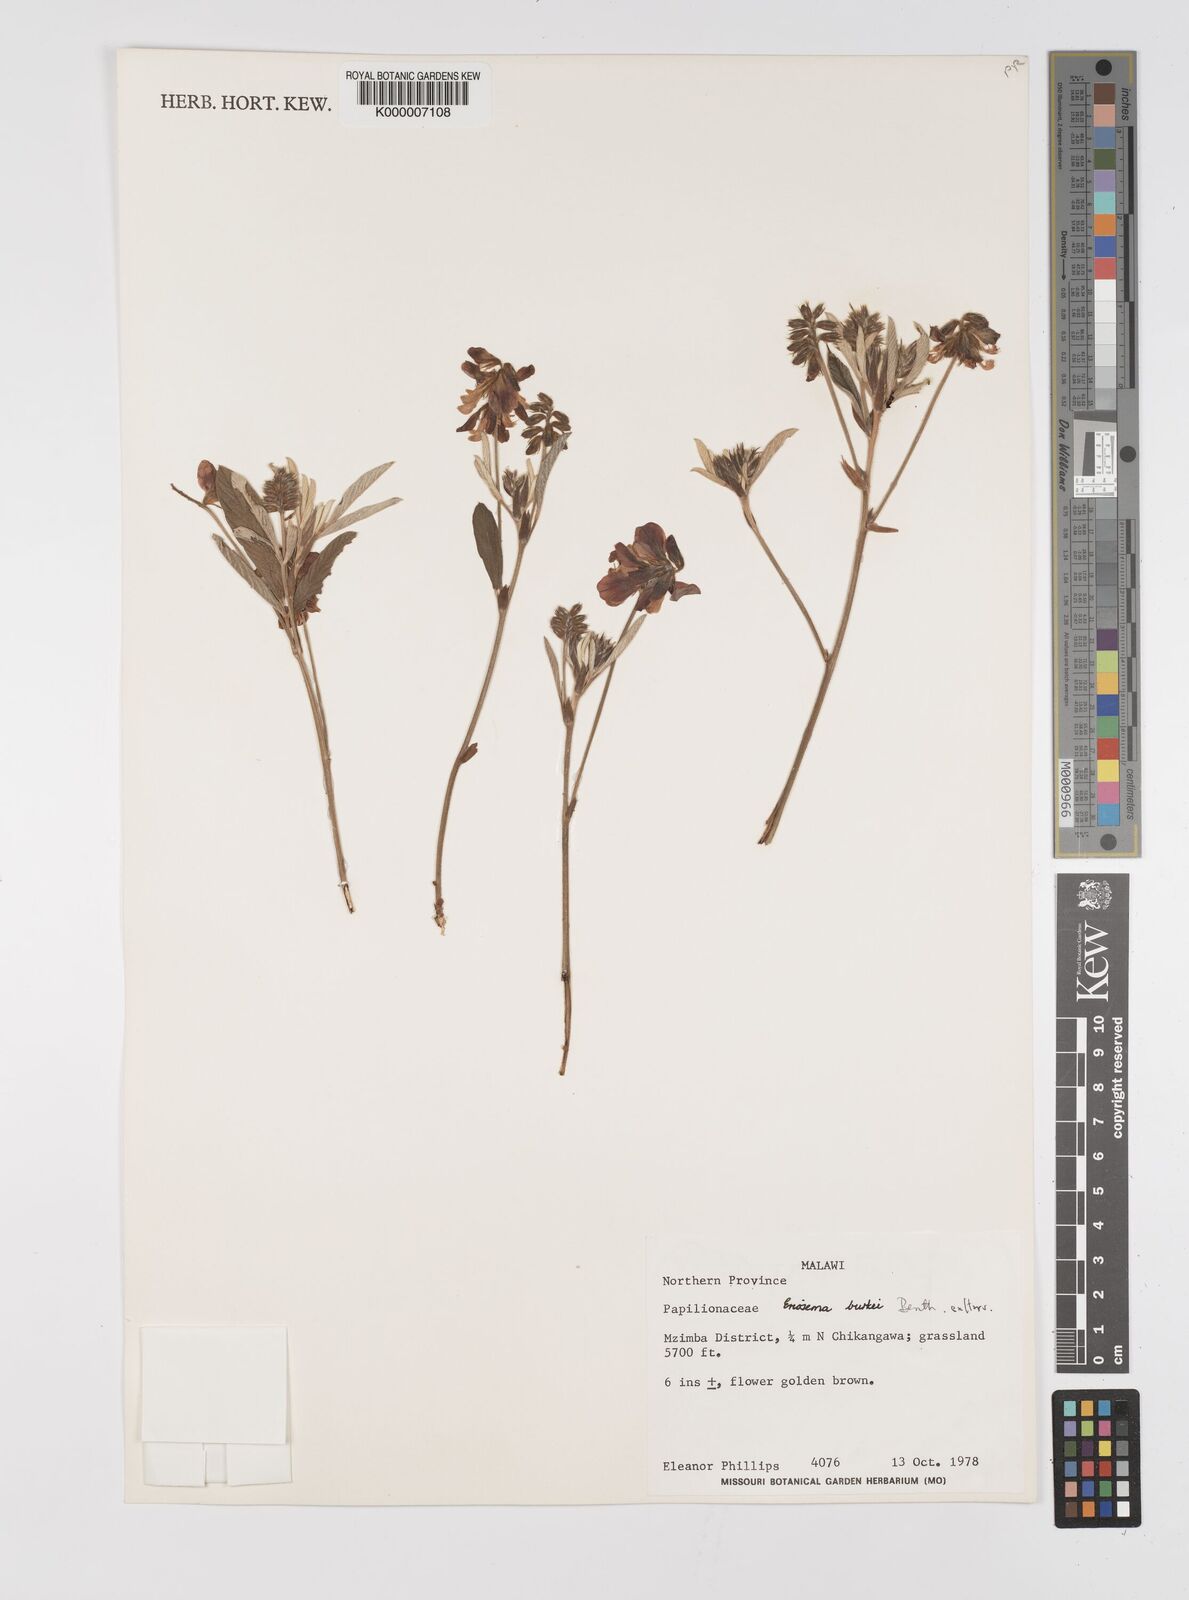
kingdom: Plantae
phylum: Tracheophyta
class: Magnoliopsida
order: Fabales
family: Fabaceae
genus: Eriosema
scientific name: Eriosema burkei
